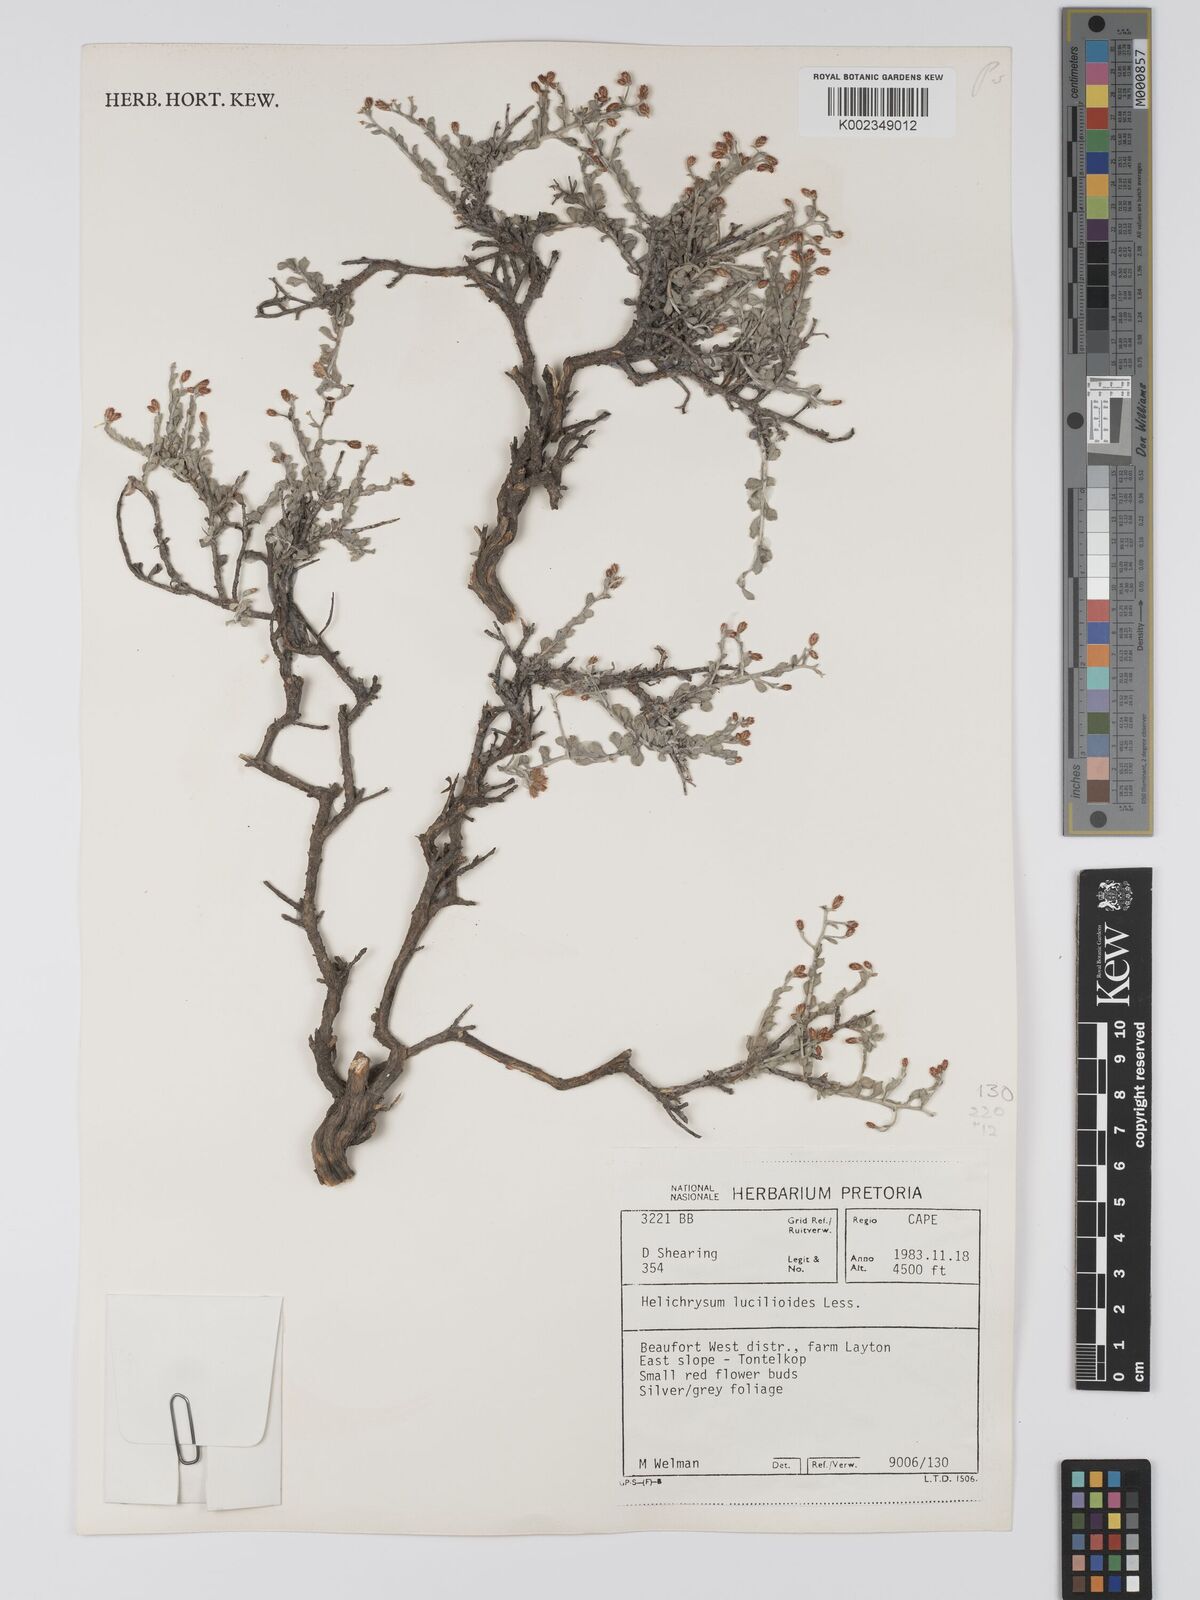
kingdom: Plantae
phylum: Tracheophyta
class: Magnoliopsida
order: Asterales
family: Asteraceae
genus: Helichrysum
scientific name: Helichrysum lucilioides
